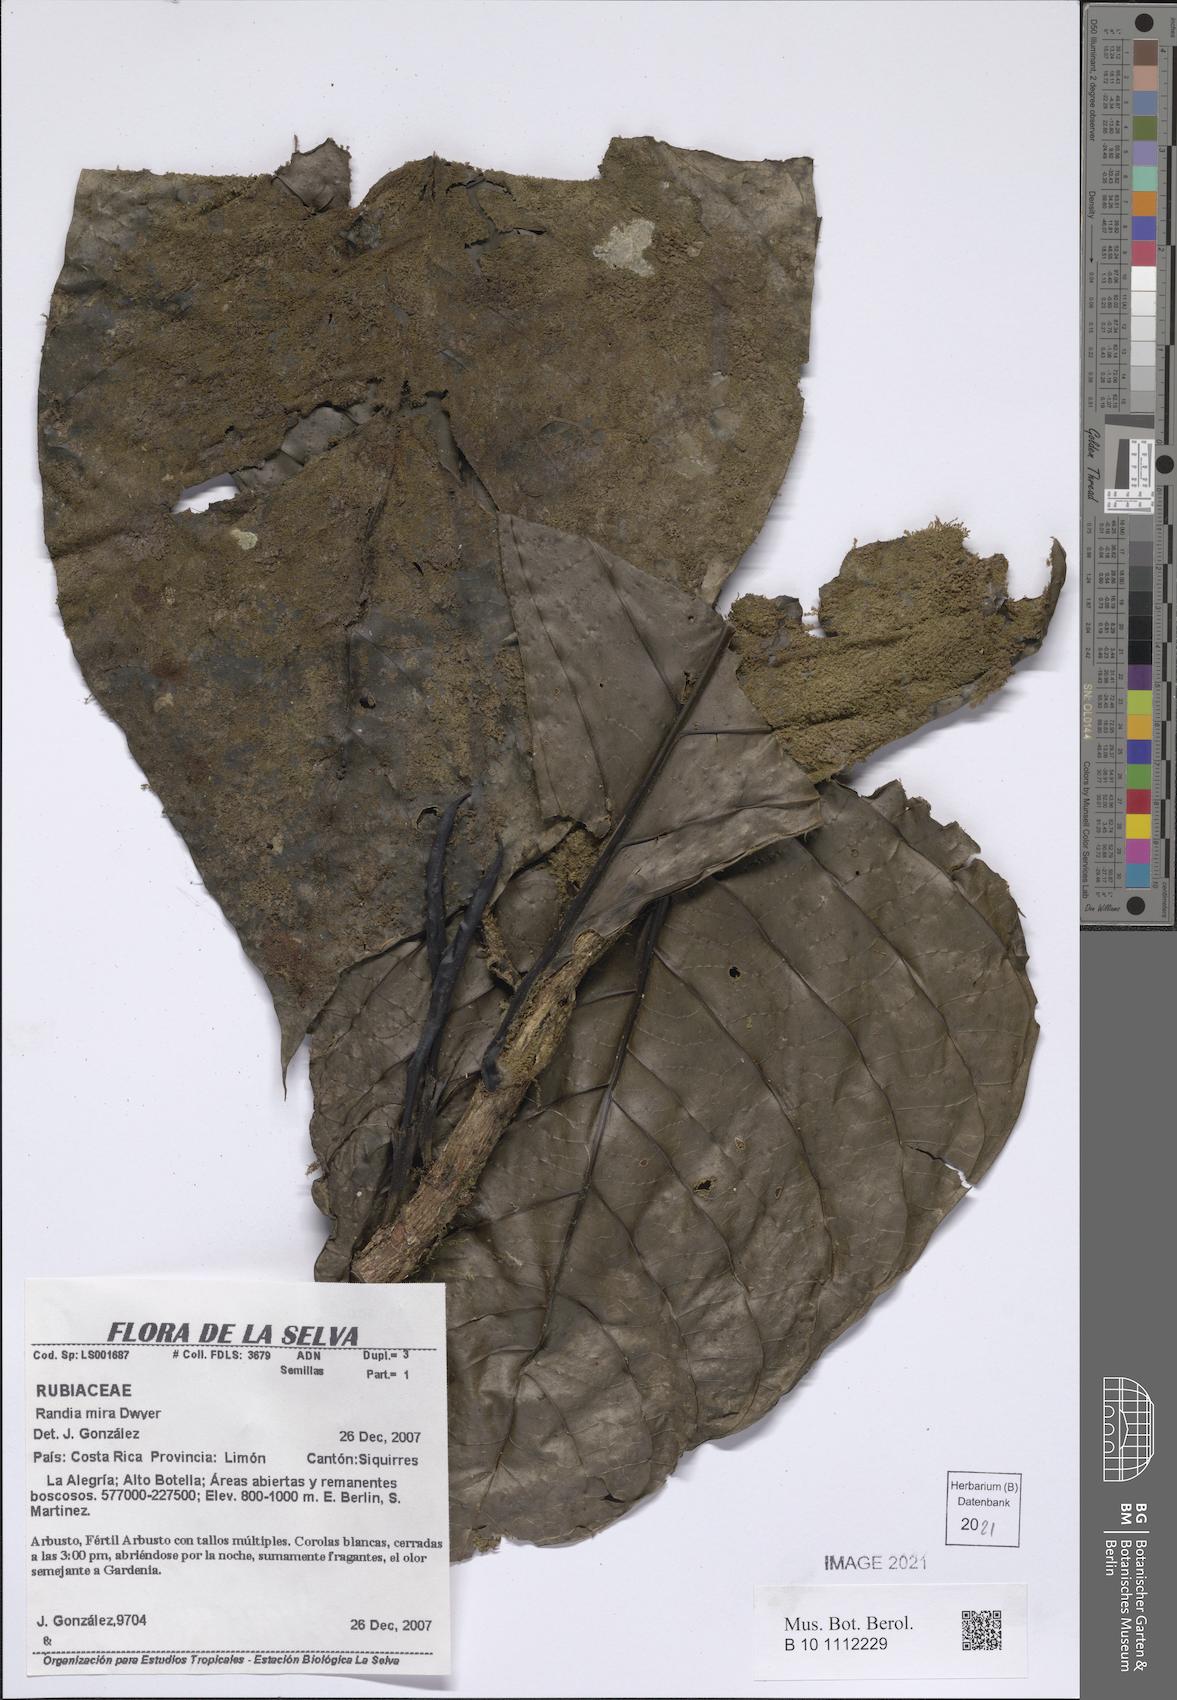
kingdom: Plantae
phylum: Tracheophyta
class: Magnoliopsida
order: Gentianales
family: Rubiaceae
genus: Randia
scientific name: Randia mira
